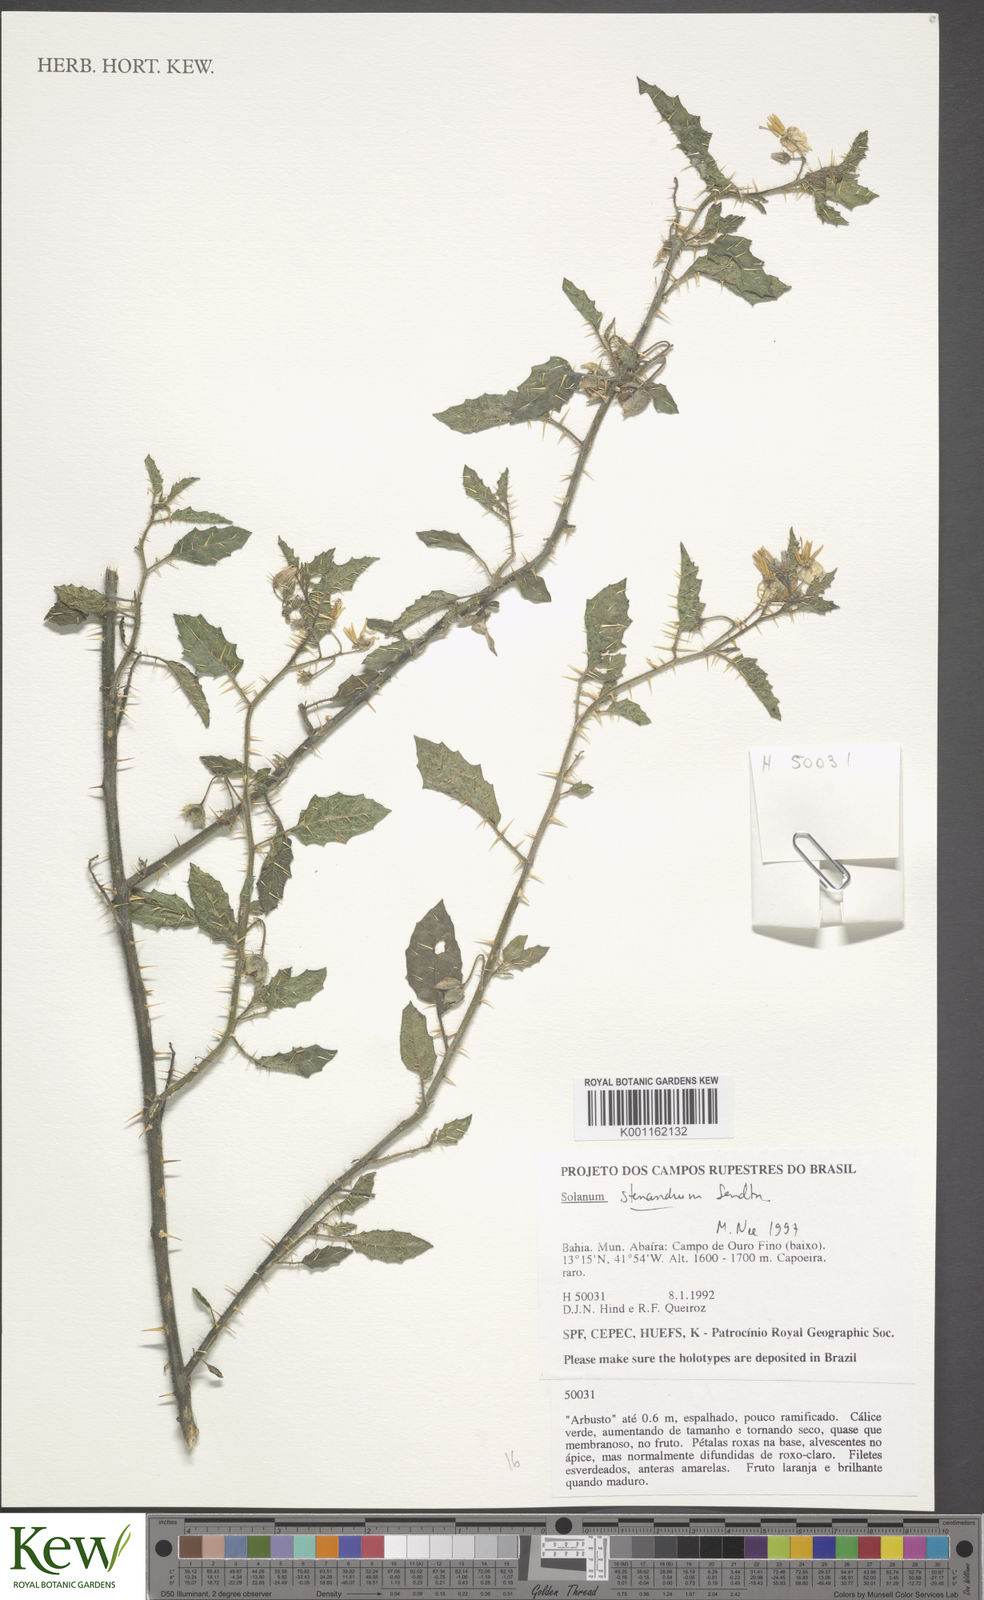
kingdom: Plantae
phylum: Tracheophyta
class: Magnoliopsida
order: Solanales
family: Solanaceae
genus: Solanum
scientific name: Solanum stenandrum
